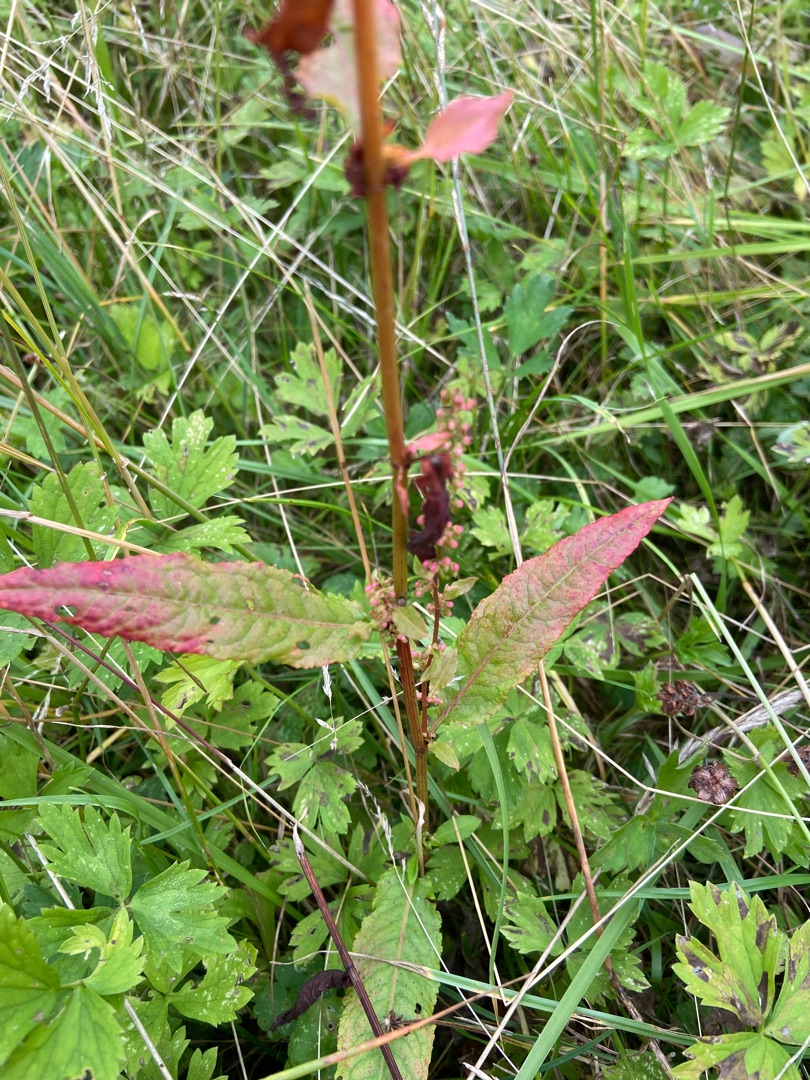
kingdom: Plantae
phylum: Tracheophyta
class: Magnoliopsida
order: Caryophyllales
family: Polygonaceae
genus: Rumex
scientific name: Rumex sanguineus
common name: Skov-skræppe
